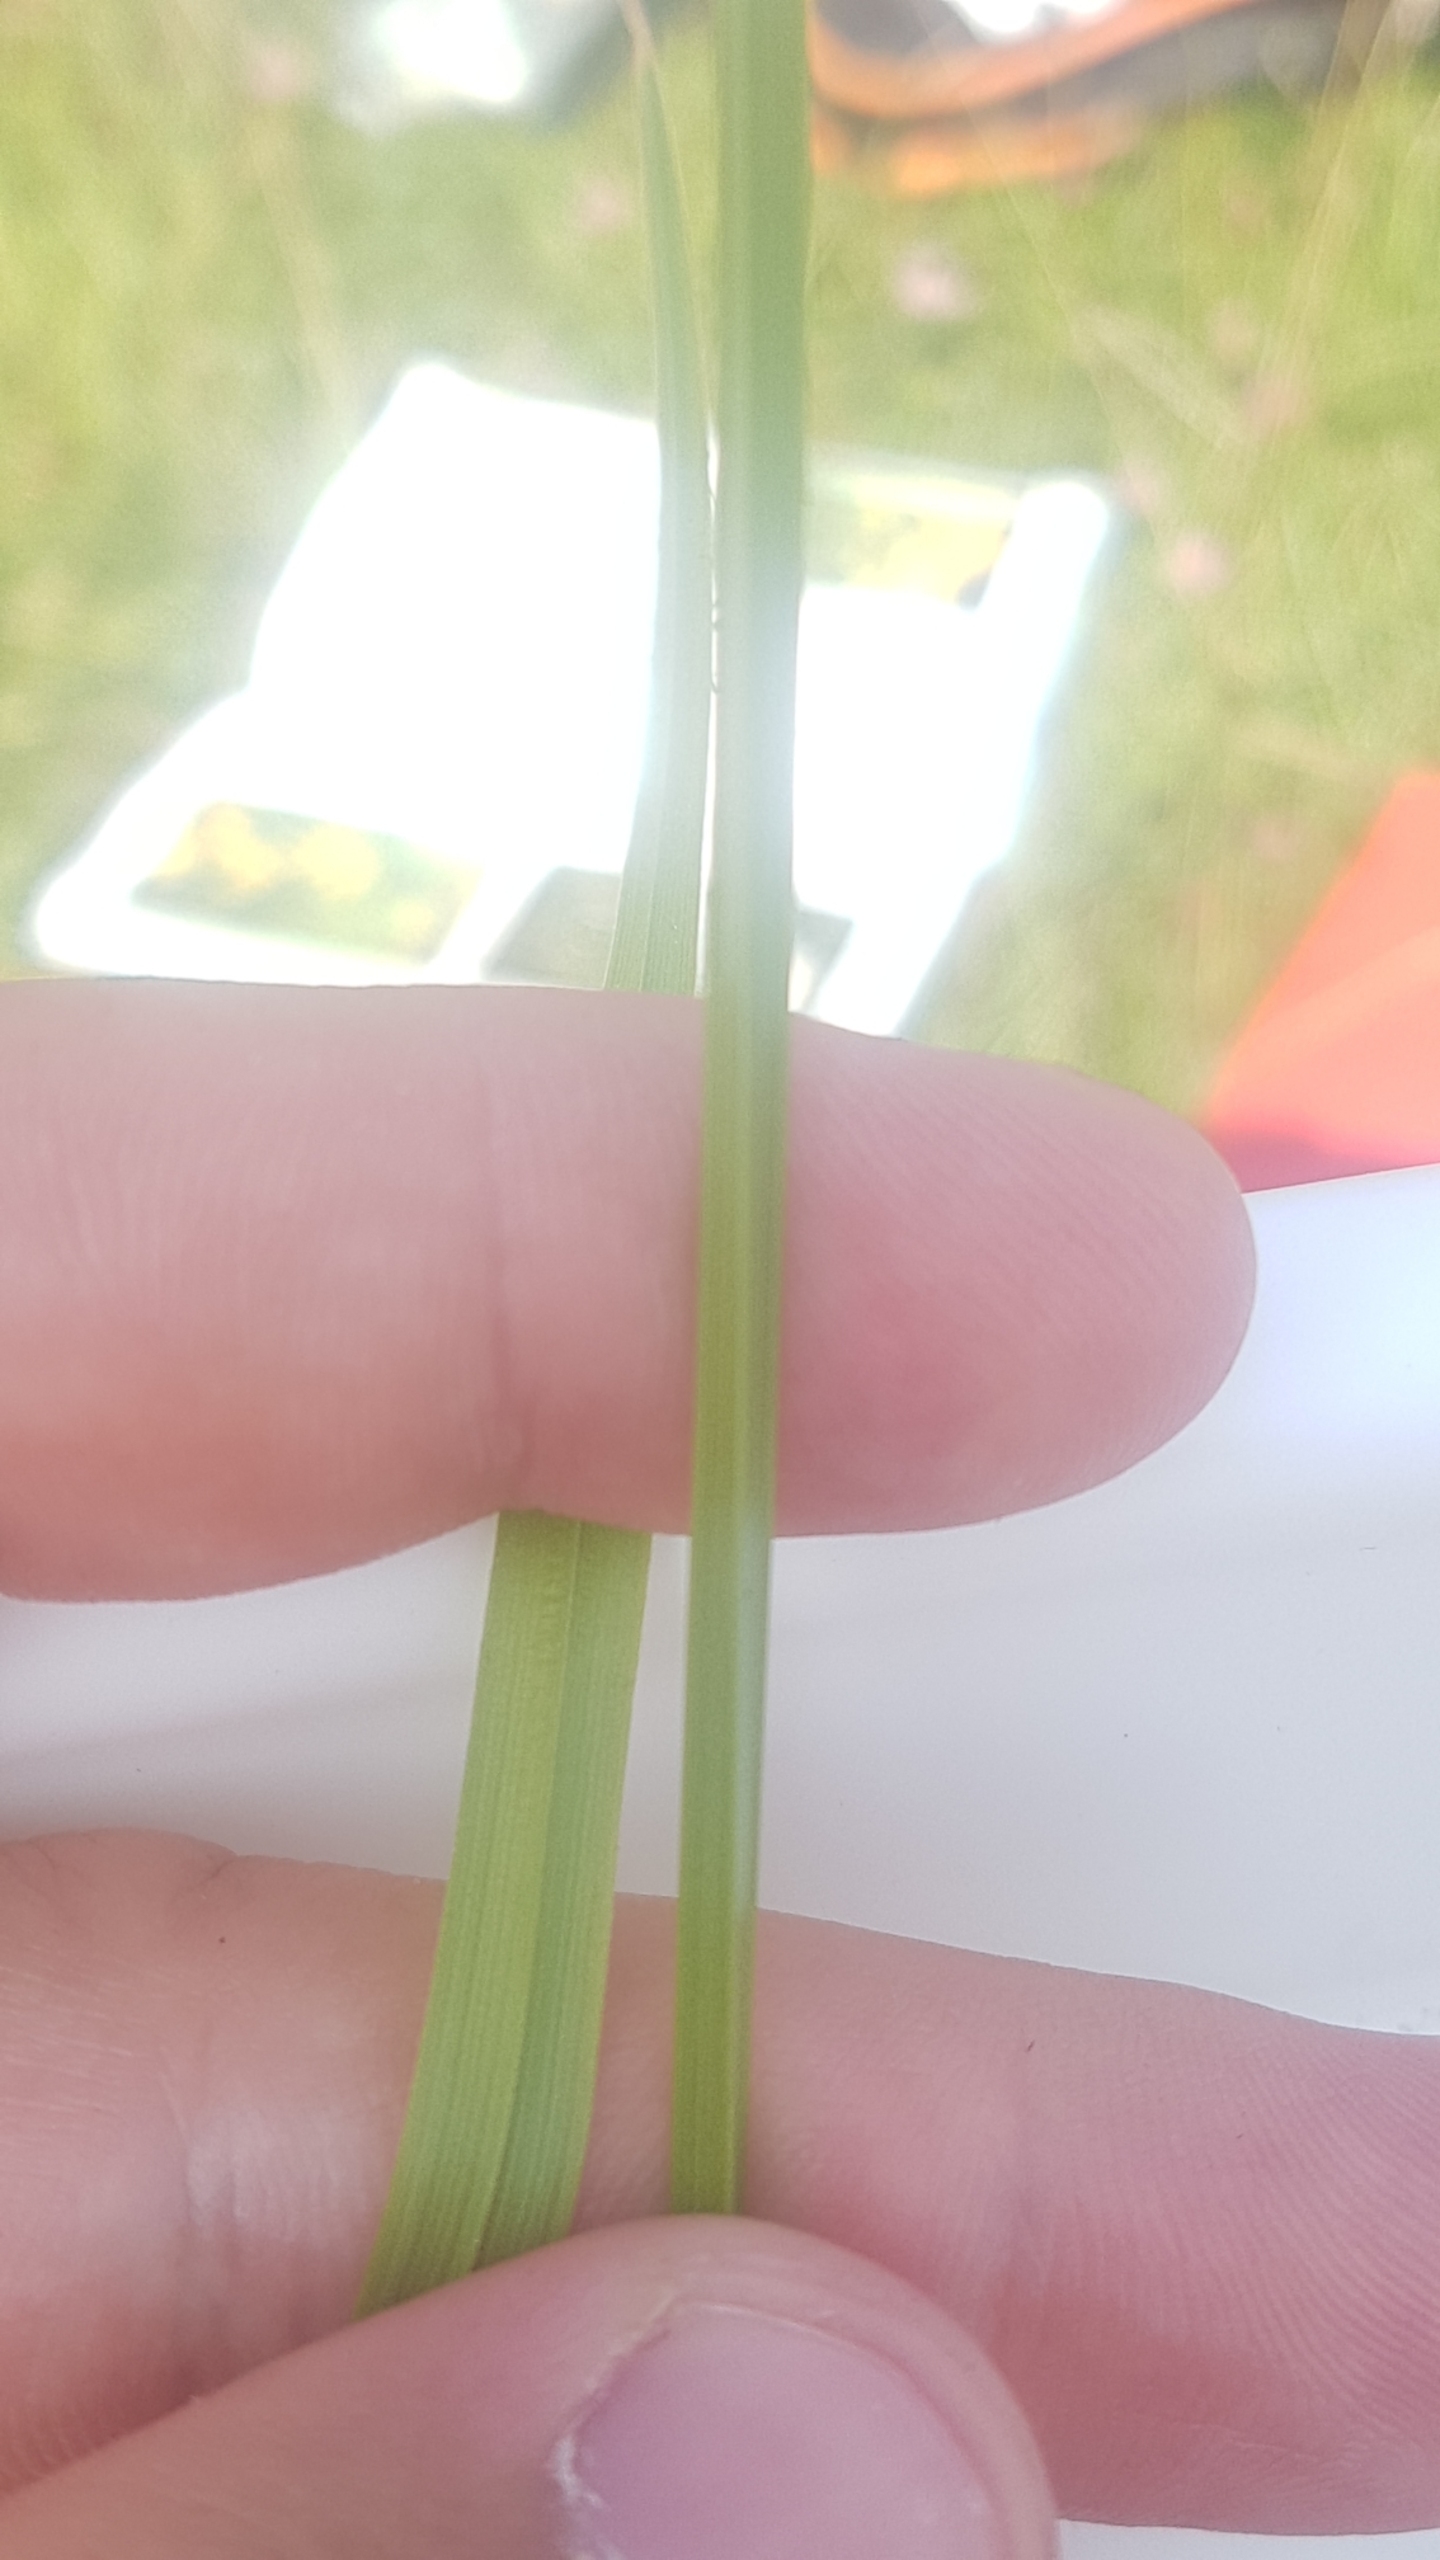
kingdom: Plantae
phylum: Tracheophyta
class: Liliopsida
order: Poales
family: Cyperaceae
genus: Carex
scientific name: Carex otrubae
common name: Sylt-star
